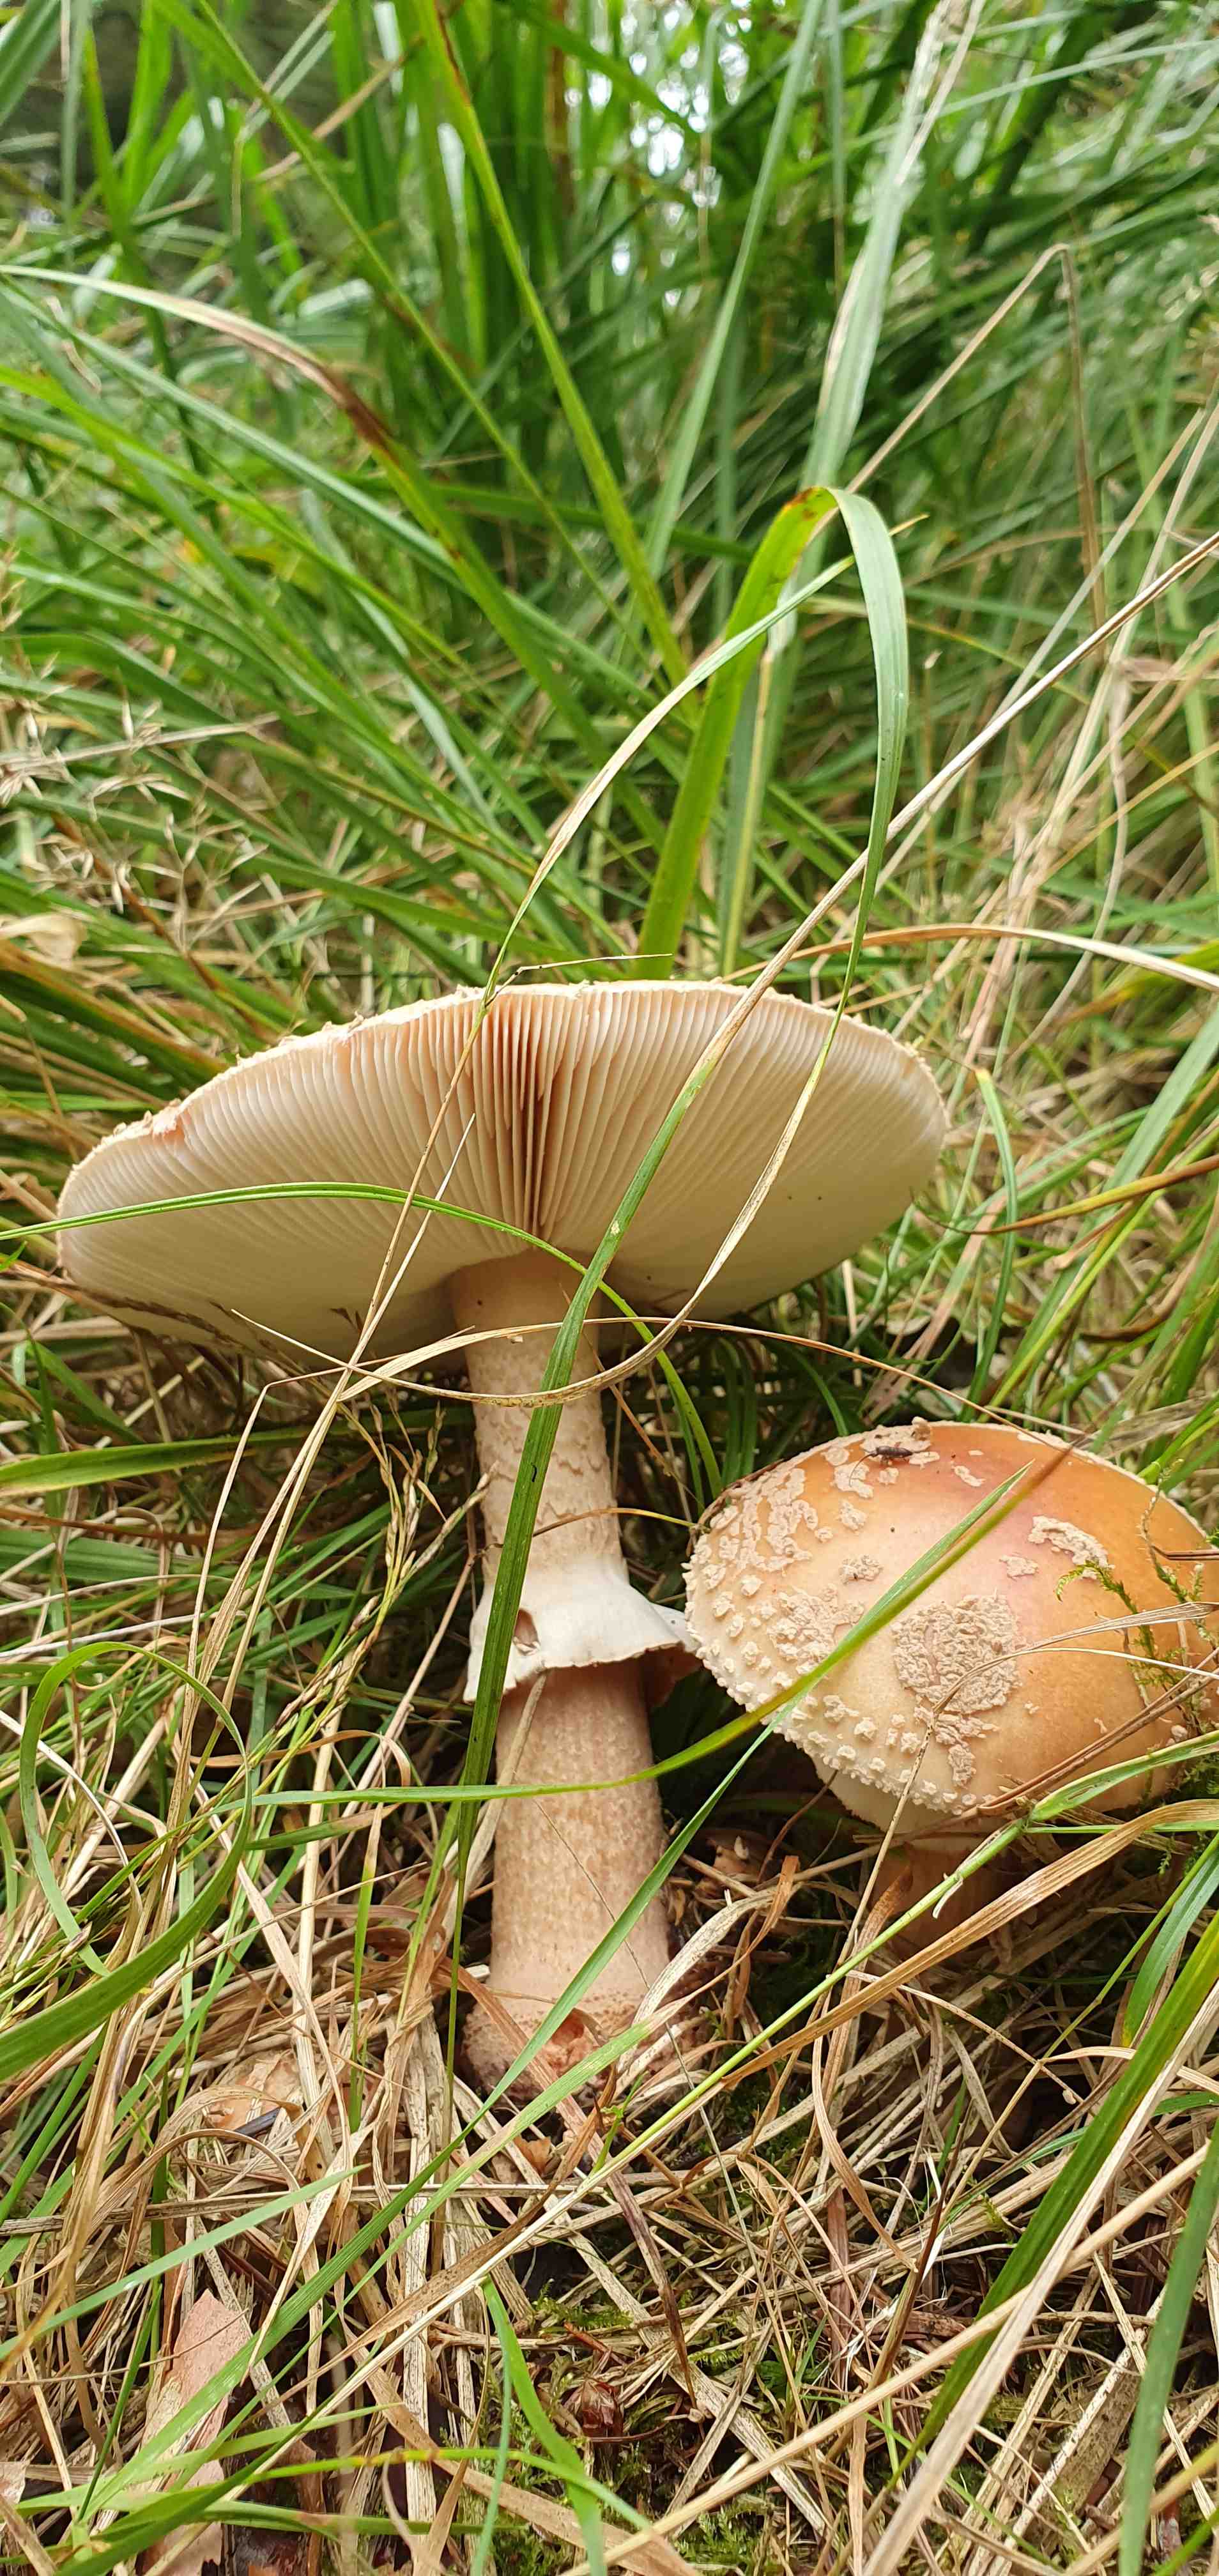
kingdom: Fungi
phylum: Basidiomycota
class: Agaricomycetes
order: Agaricales
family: Amanitaceae
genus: Amanita
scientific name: Amanita rubescens
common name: rødmende fluesvamp
